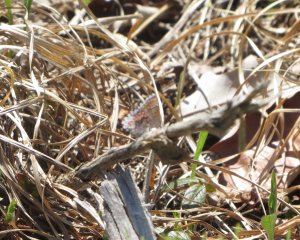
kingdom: Animalia
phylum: Arthropoda
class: Insecta
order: Lepidoptera
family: Lycaenidae
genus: Callophrys
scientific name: Callophrys polios
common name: Hoary Elfin
